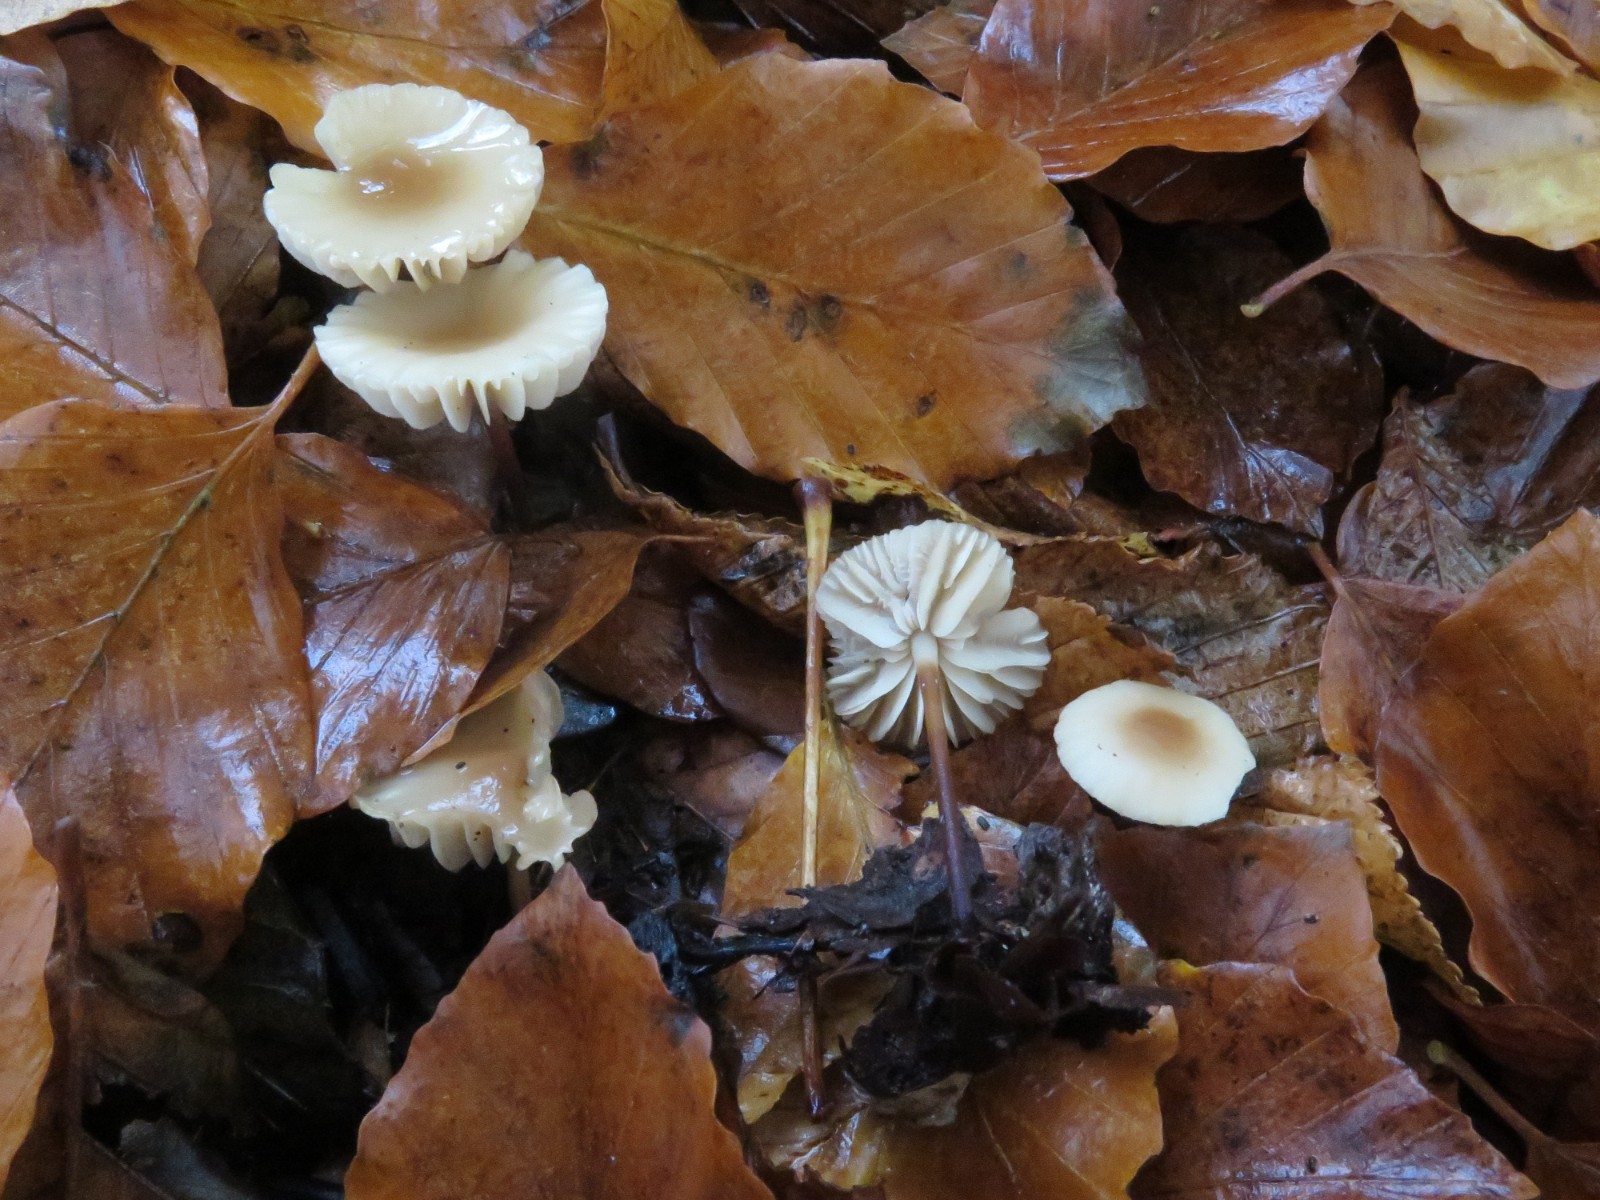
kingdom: Fungi
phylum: Basidiomycota
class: Agaricomycetes
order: Agaricales
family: Marasmiaceae
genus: Marasmius
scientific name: Marasmius
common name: bruskhat
